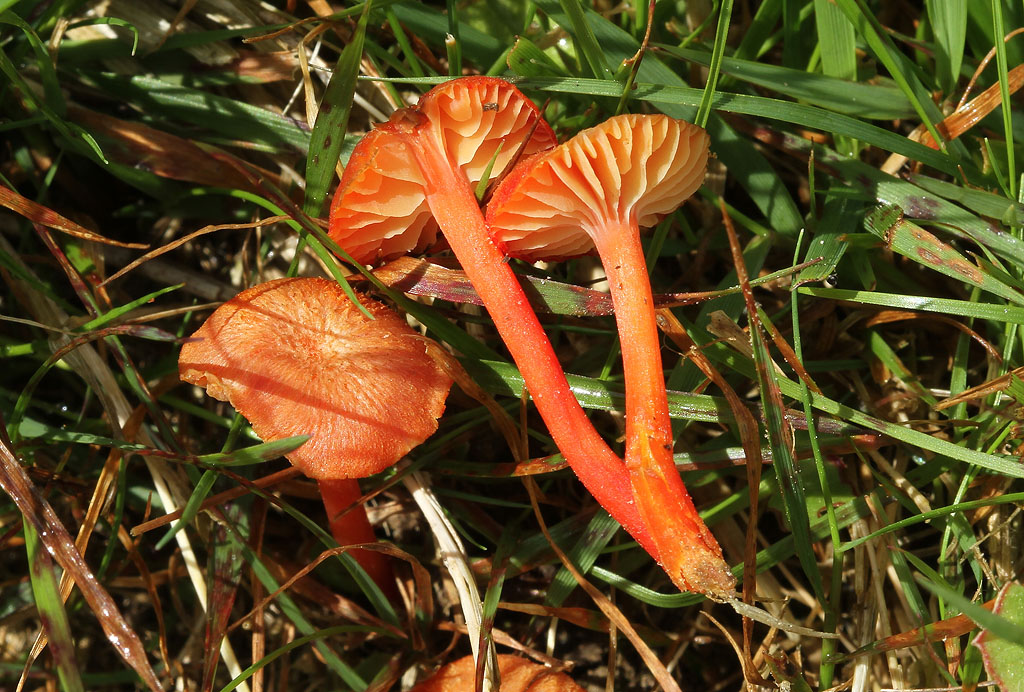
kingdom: Fungi
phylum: Basidiomycota
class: Agaricomycetes
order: Agaricales
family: Hygrophoraceae
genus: Hygrocybe
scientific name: Hygrocybe helobia
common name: hvidløgs-vokshat
